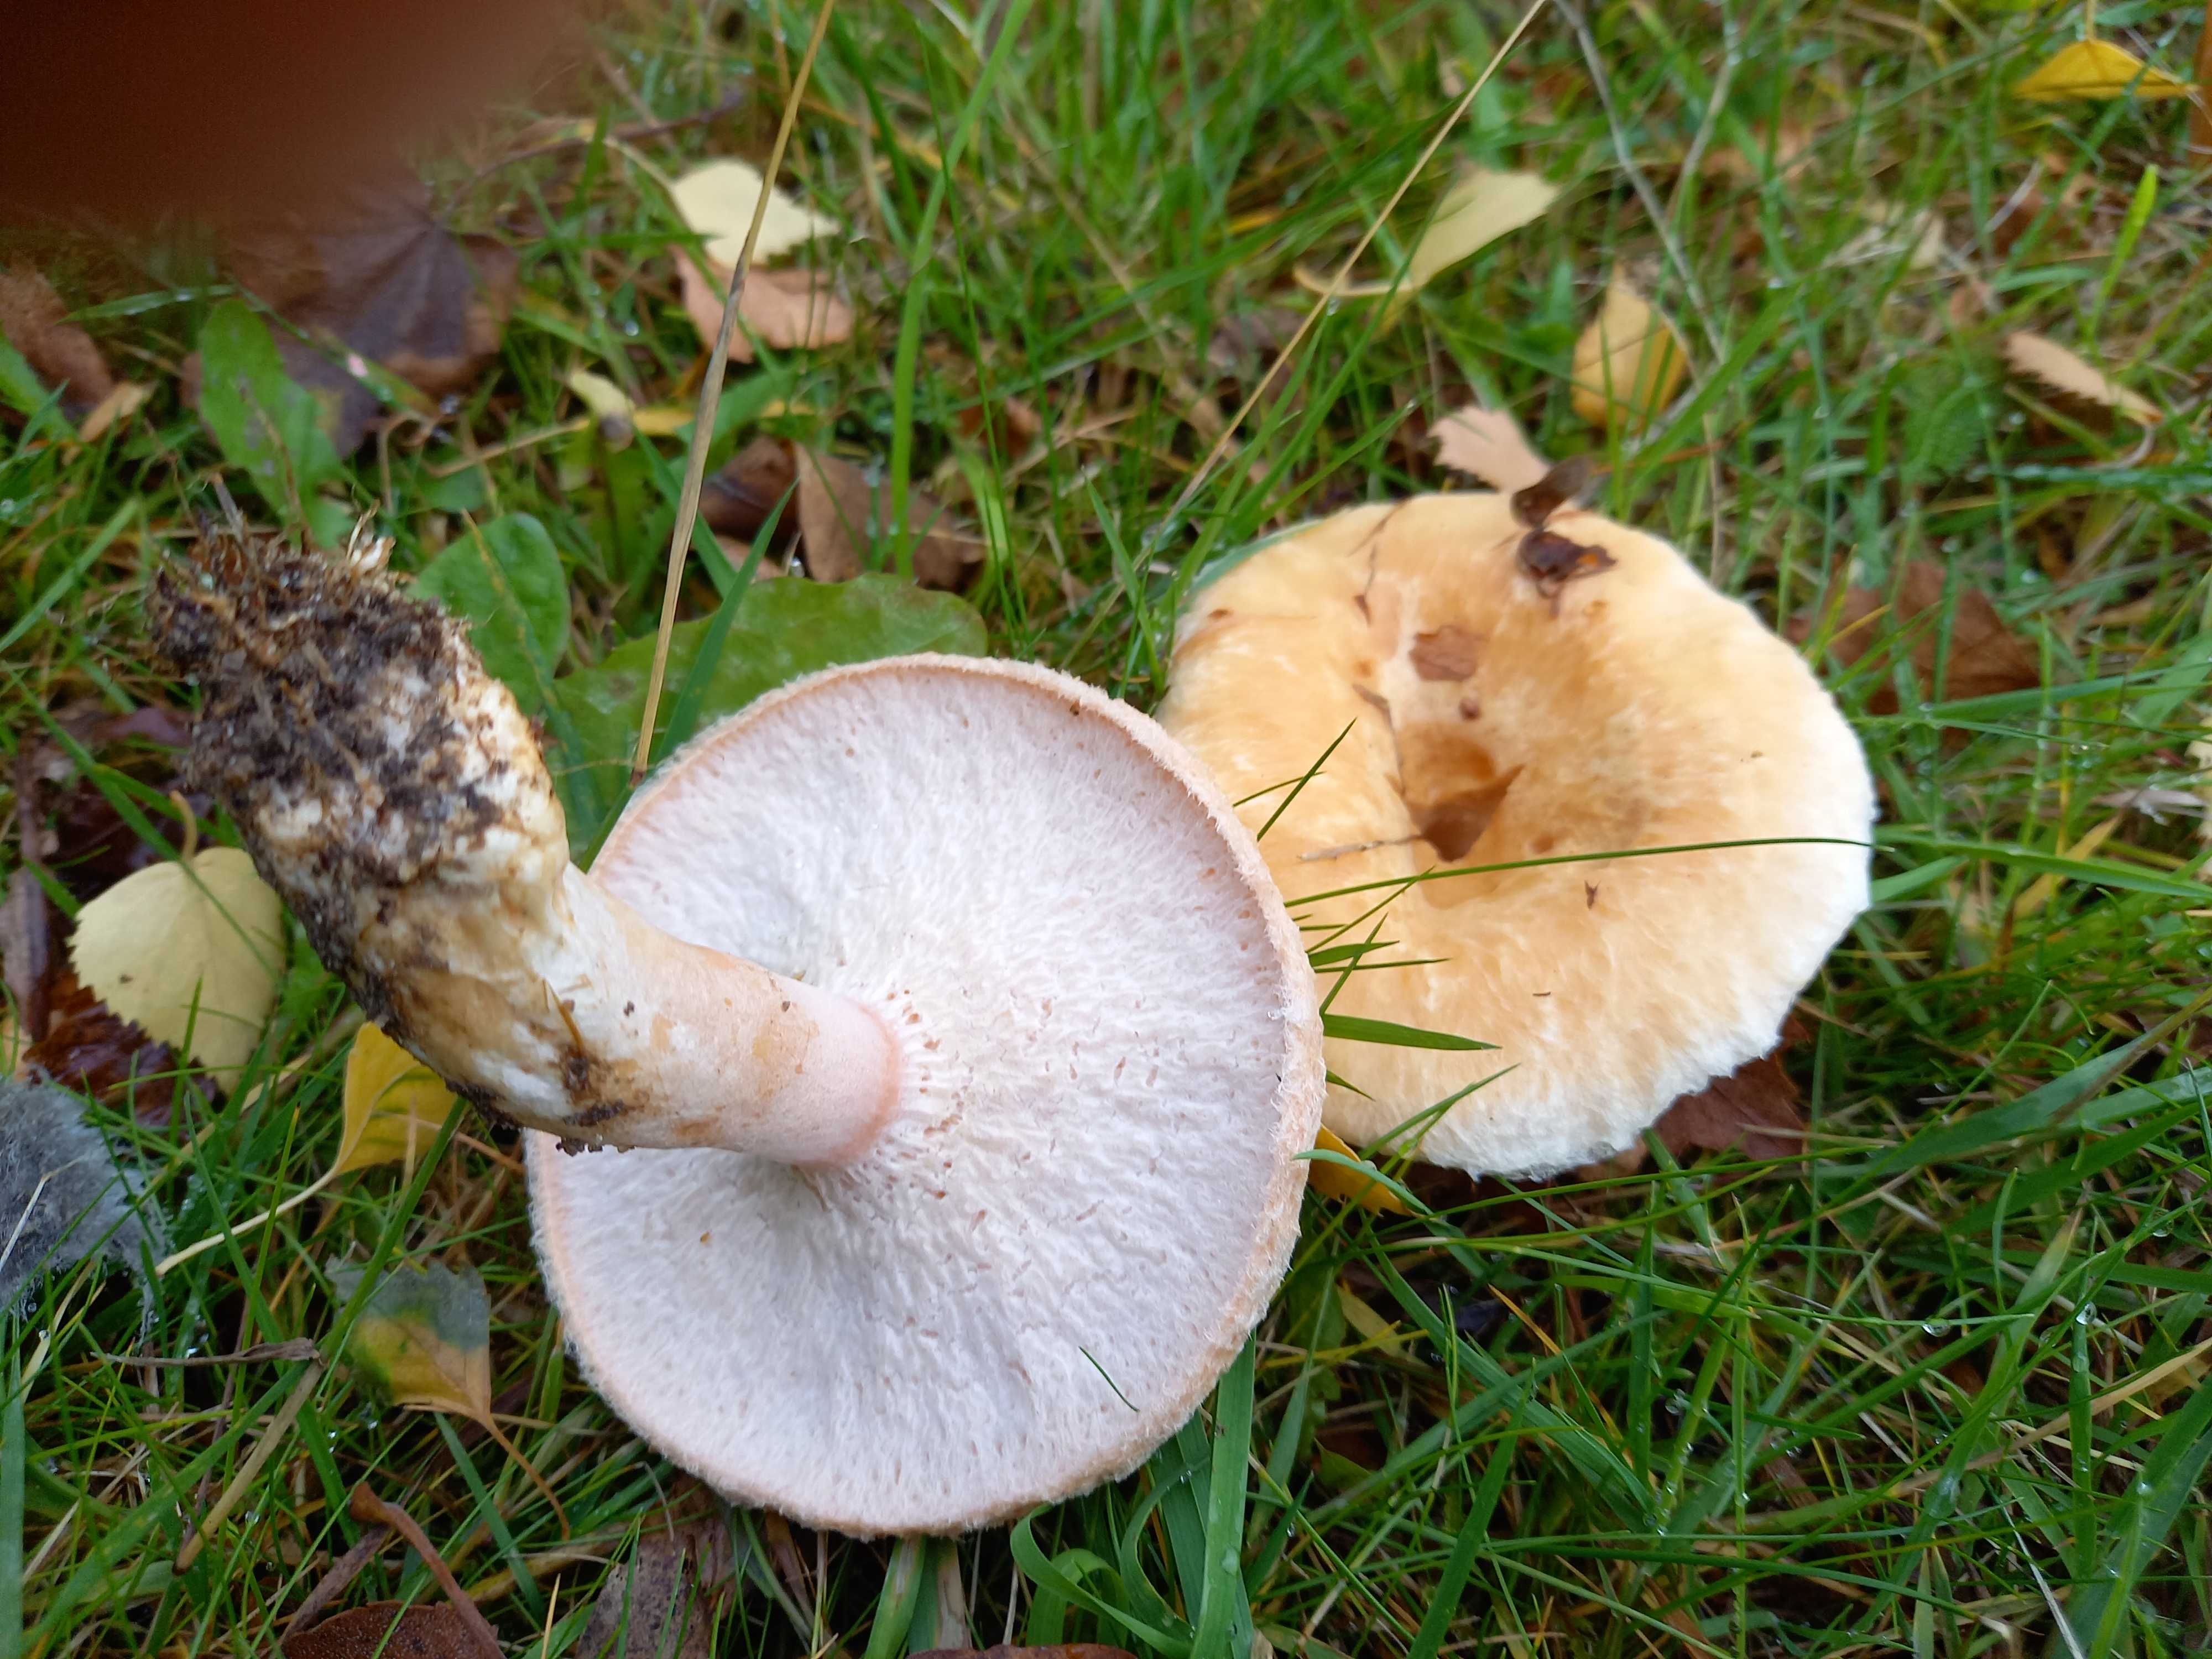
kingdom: Fungi
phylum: Basidiomycota
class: Agaricomycetes
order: Russulales
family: Russulaceae
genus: Lactarius
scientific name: Lactarius pubescens
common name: dunet mælkehat
